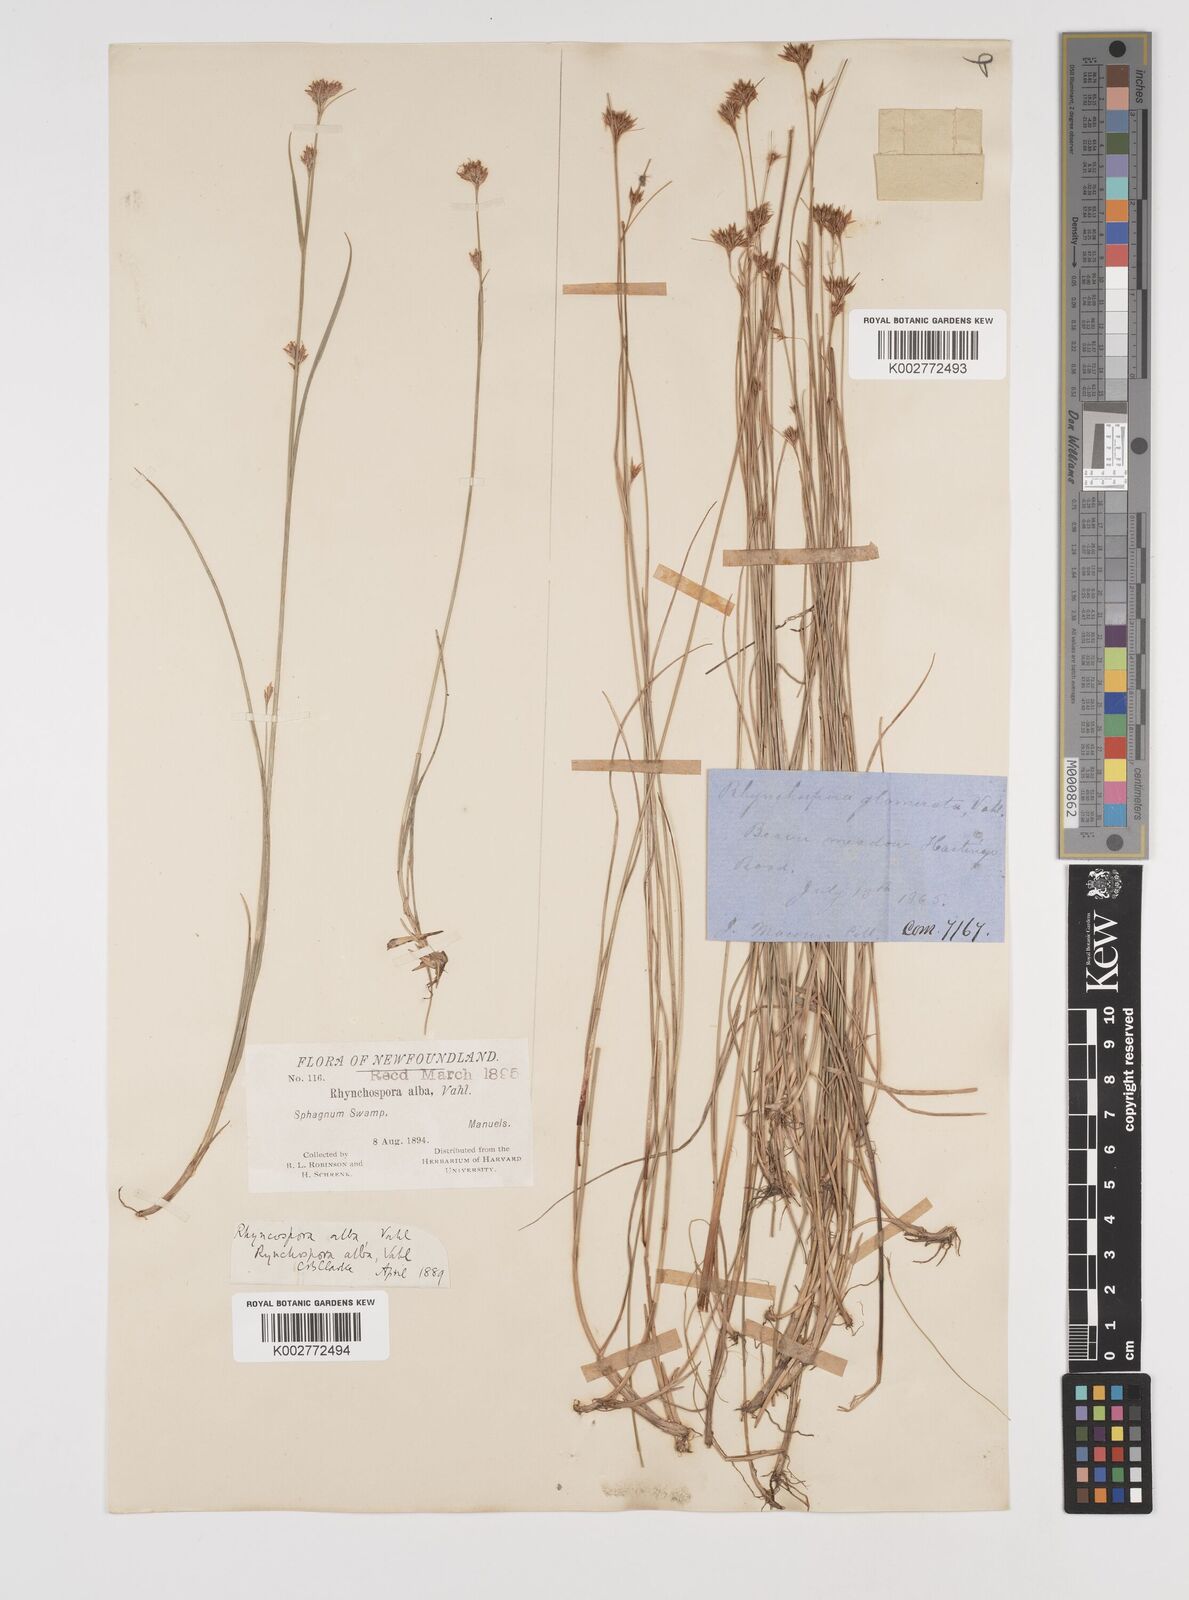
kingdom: Plantae
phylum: Tracheophyta
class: Liliopsida
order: Poales
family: Cyperaceae
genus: Rhynchospora
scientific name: Rhynchospora alba
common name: White beak-sedge
